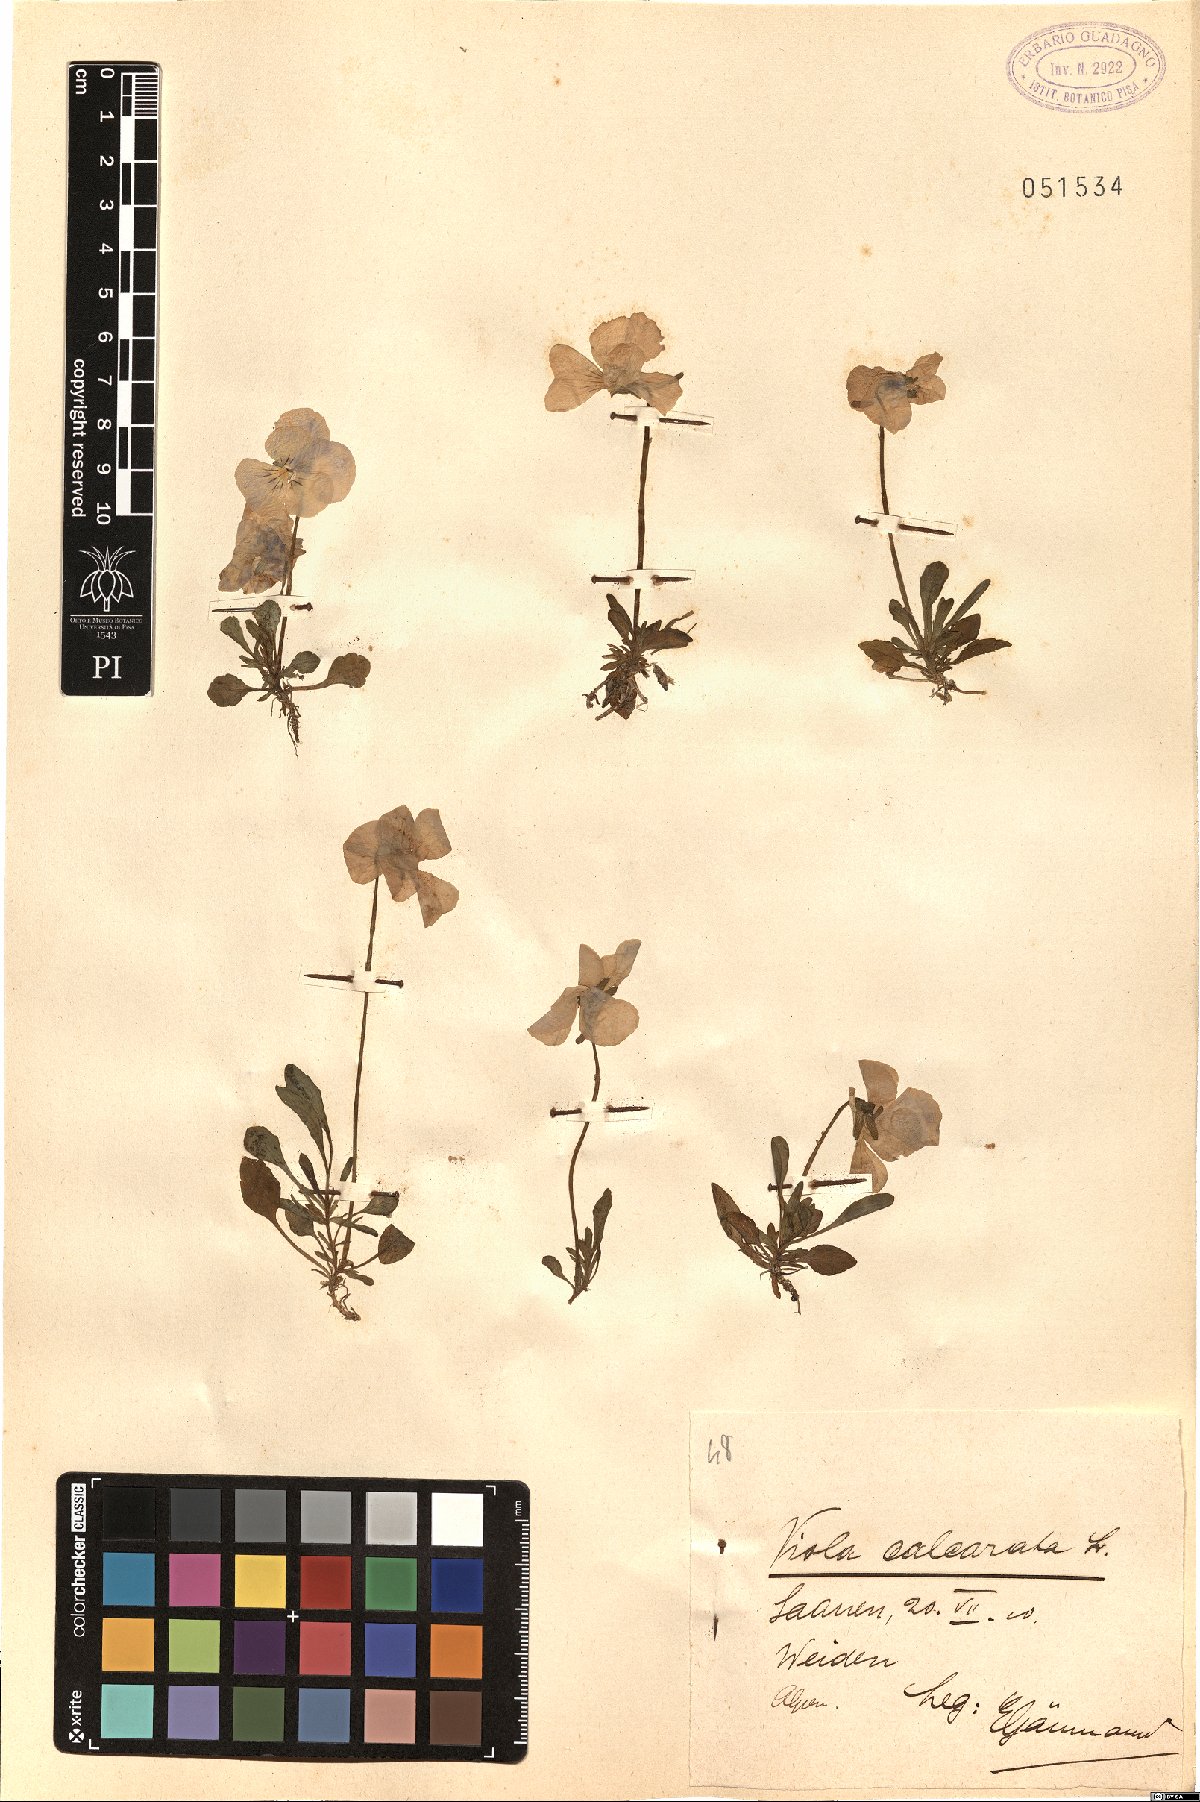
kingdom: Plantae
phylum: Tracheophyta
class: Magnoliopsida
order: Malpighiales
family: Violaceae
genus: Viola
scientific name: Viola calcarata
